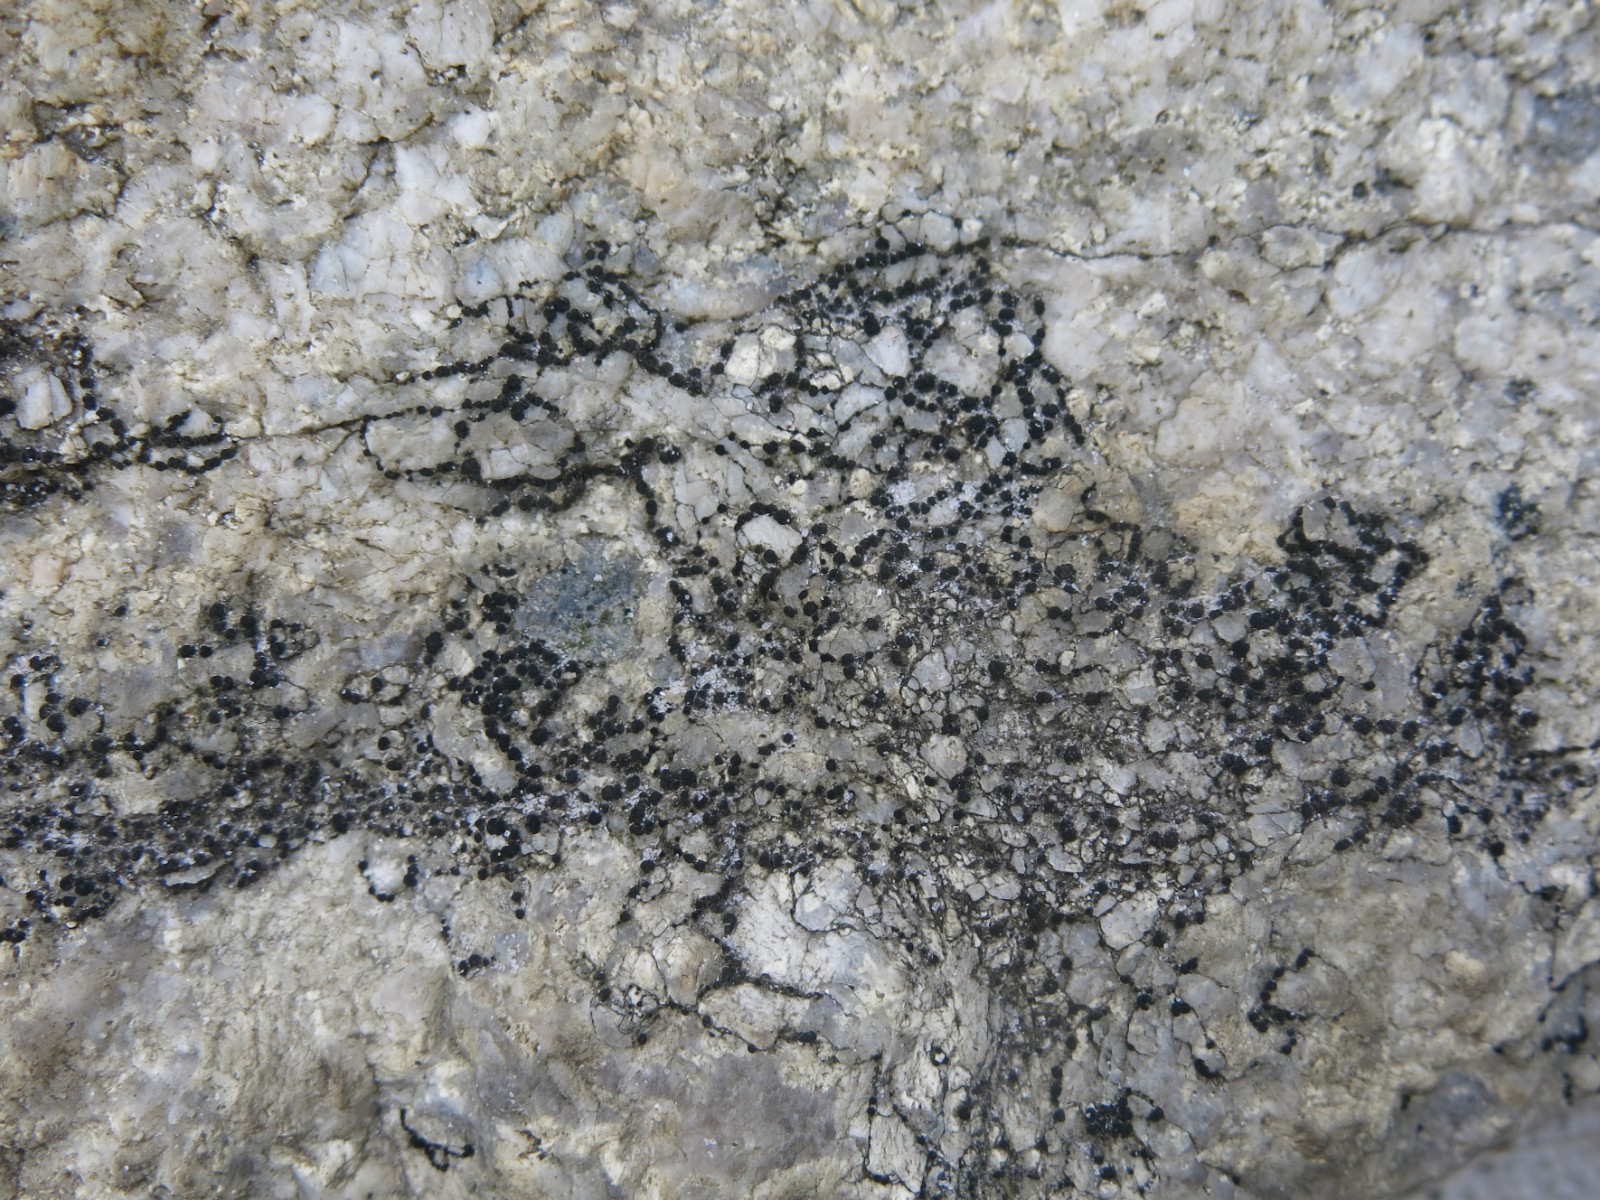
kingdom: Fungi
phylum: Ascomycota
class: Lecanoromycetes
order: Acarosporales
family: Acarosporaceae
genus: Acarospora
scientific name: Acarospora privigna
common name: sort foldekantlav
